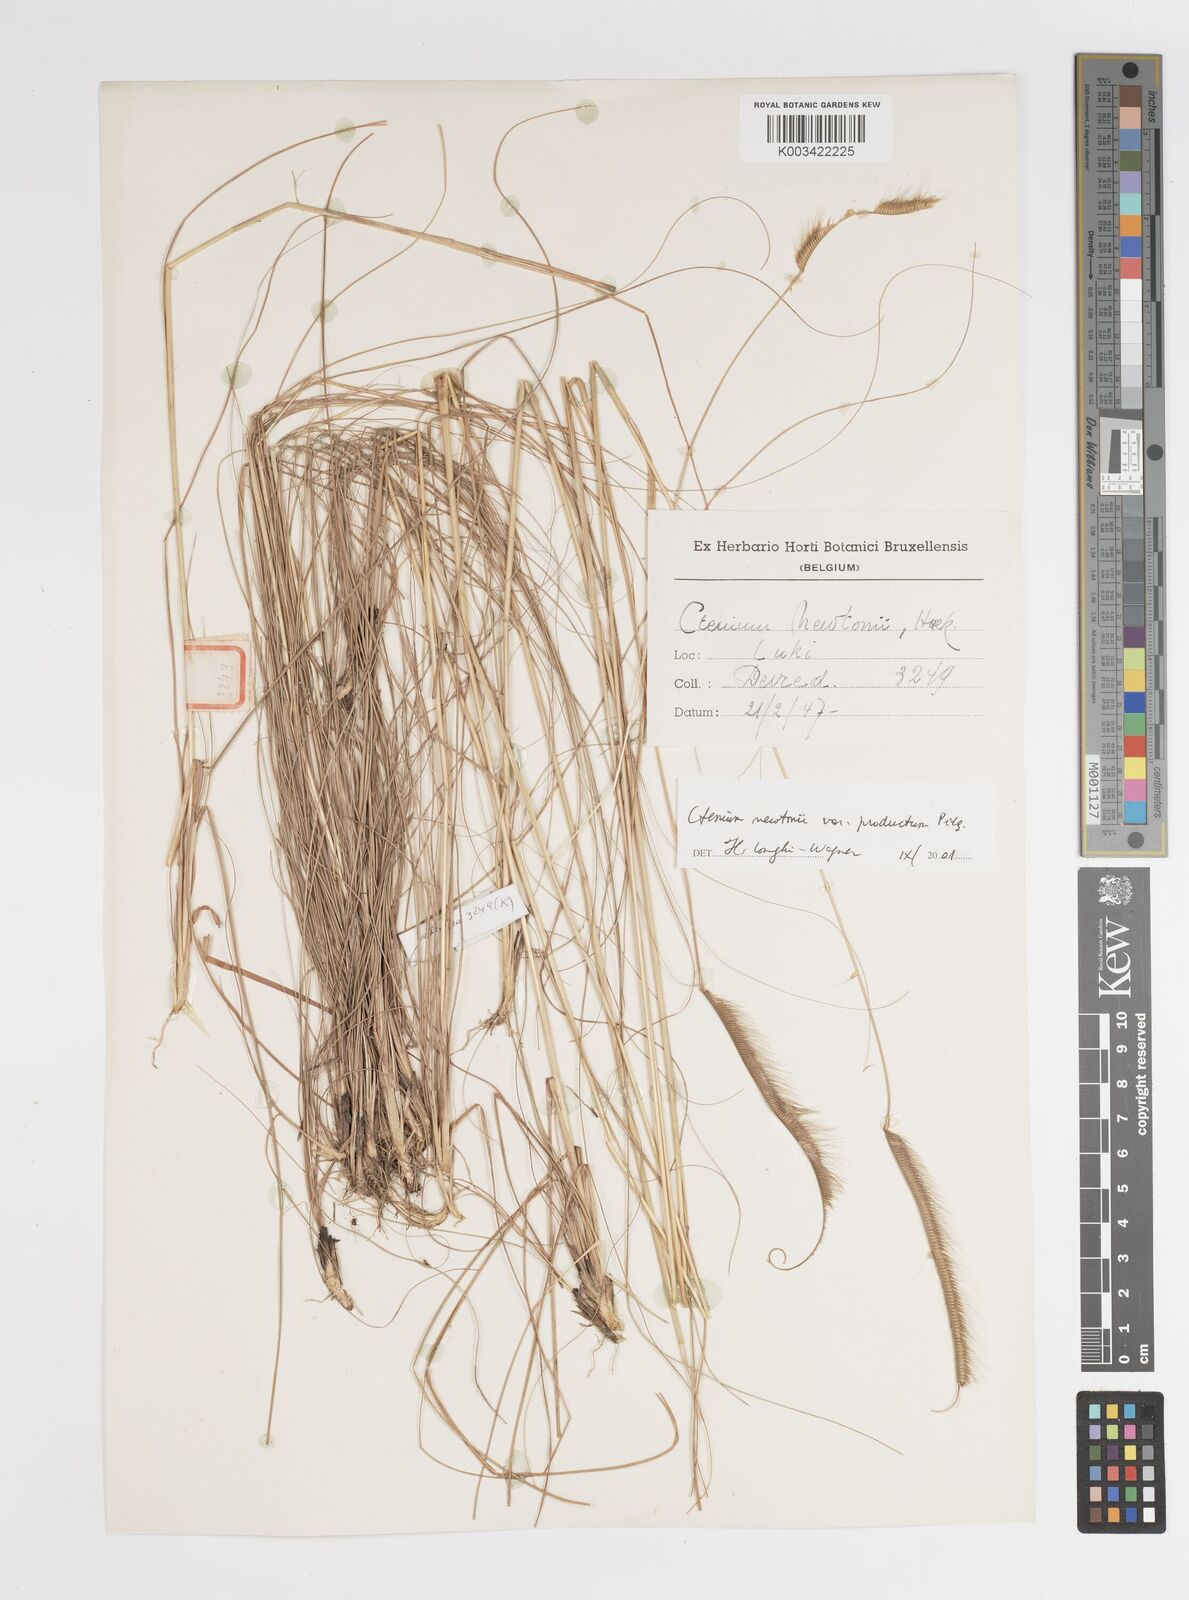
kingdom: Plantae
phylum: Tracheophyta
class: Liliopsida
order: Poales
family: Poaceae
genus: Ctenium
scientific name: Ctenium newtonii
